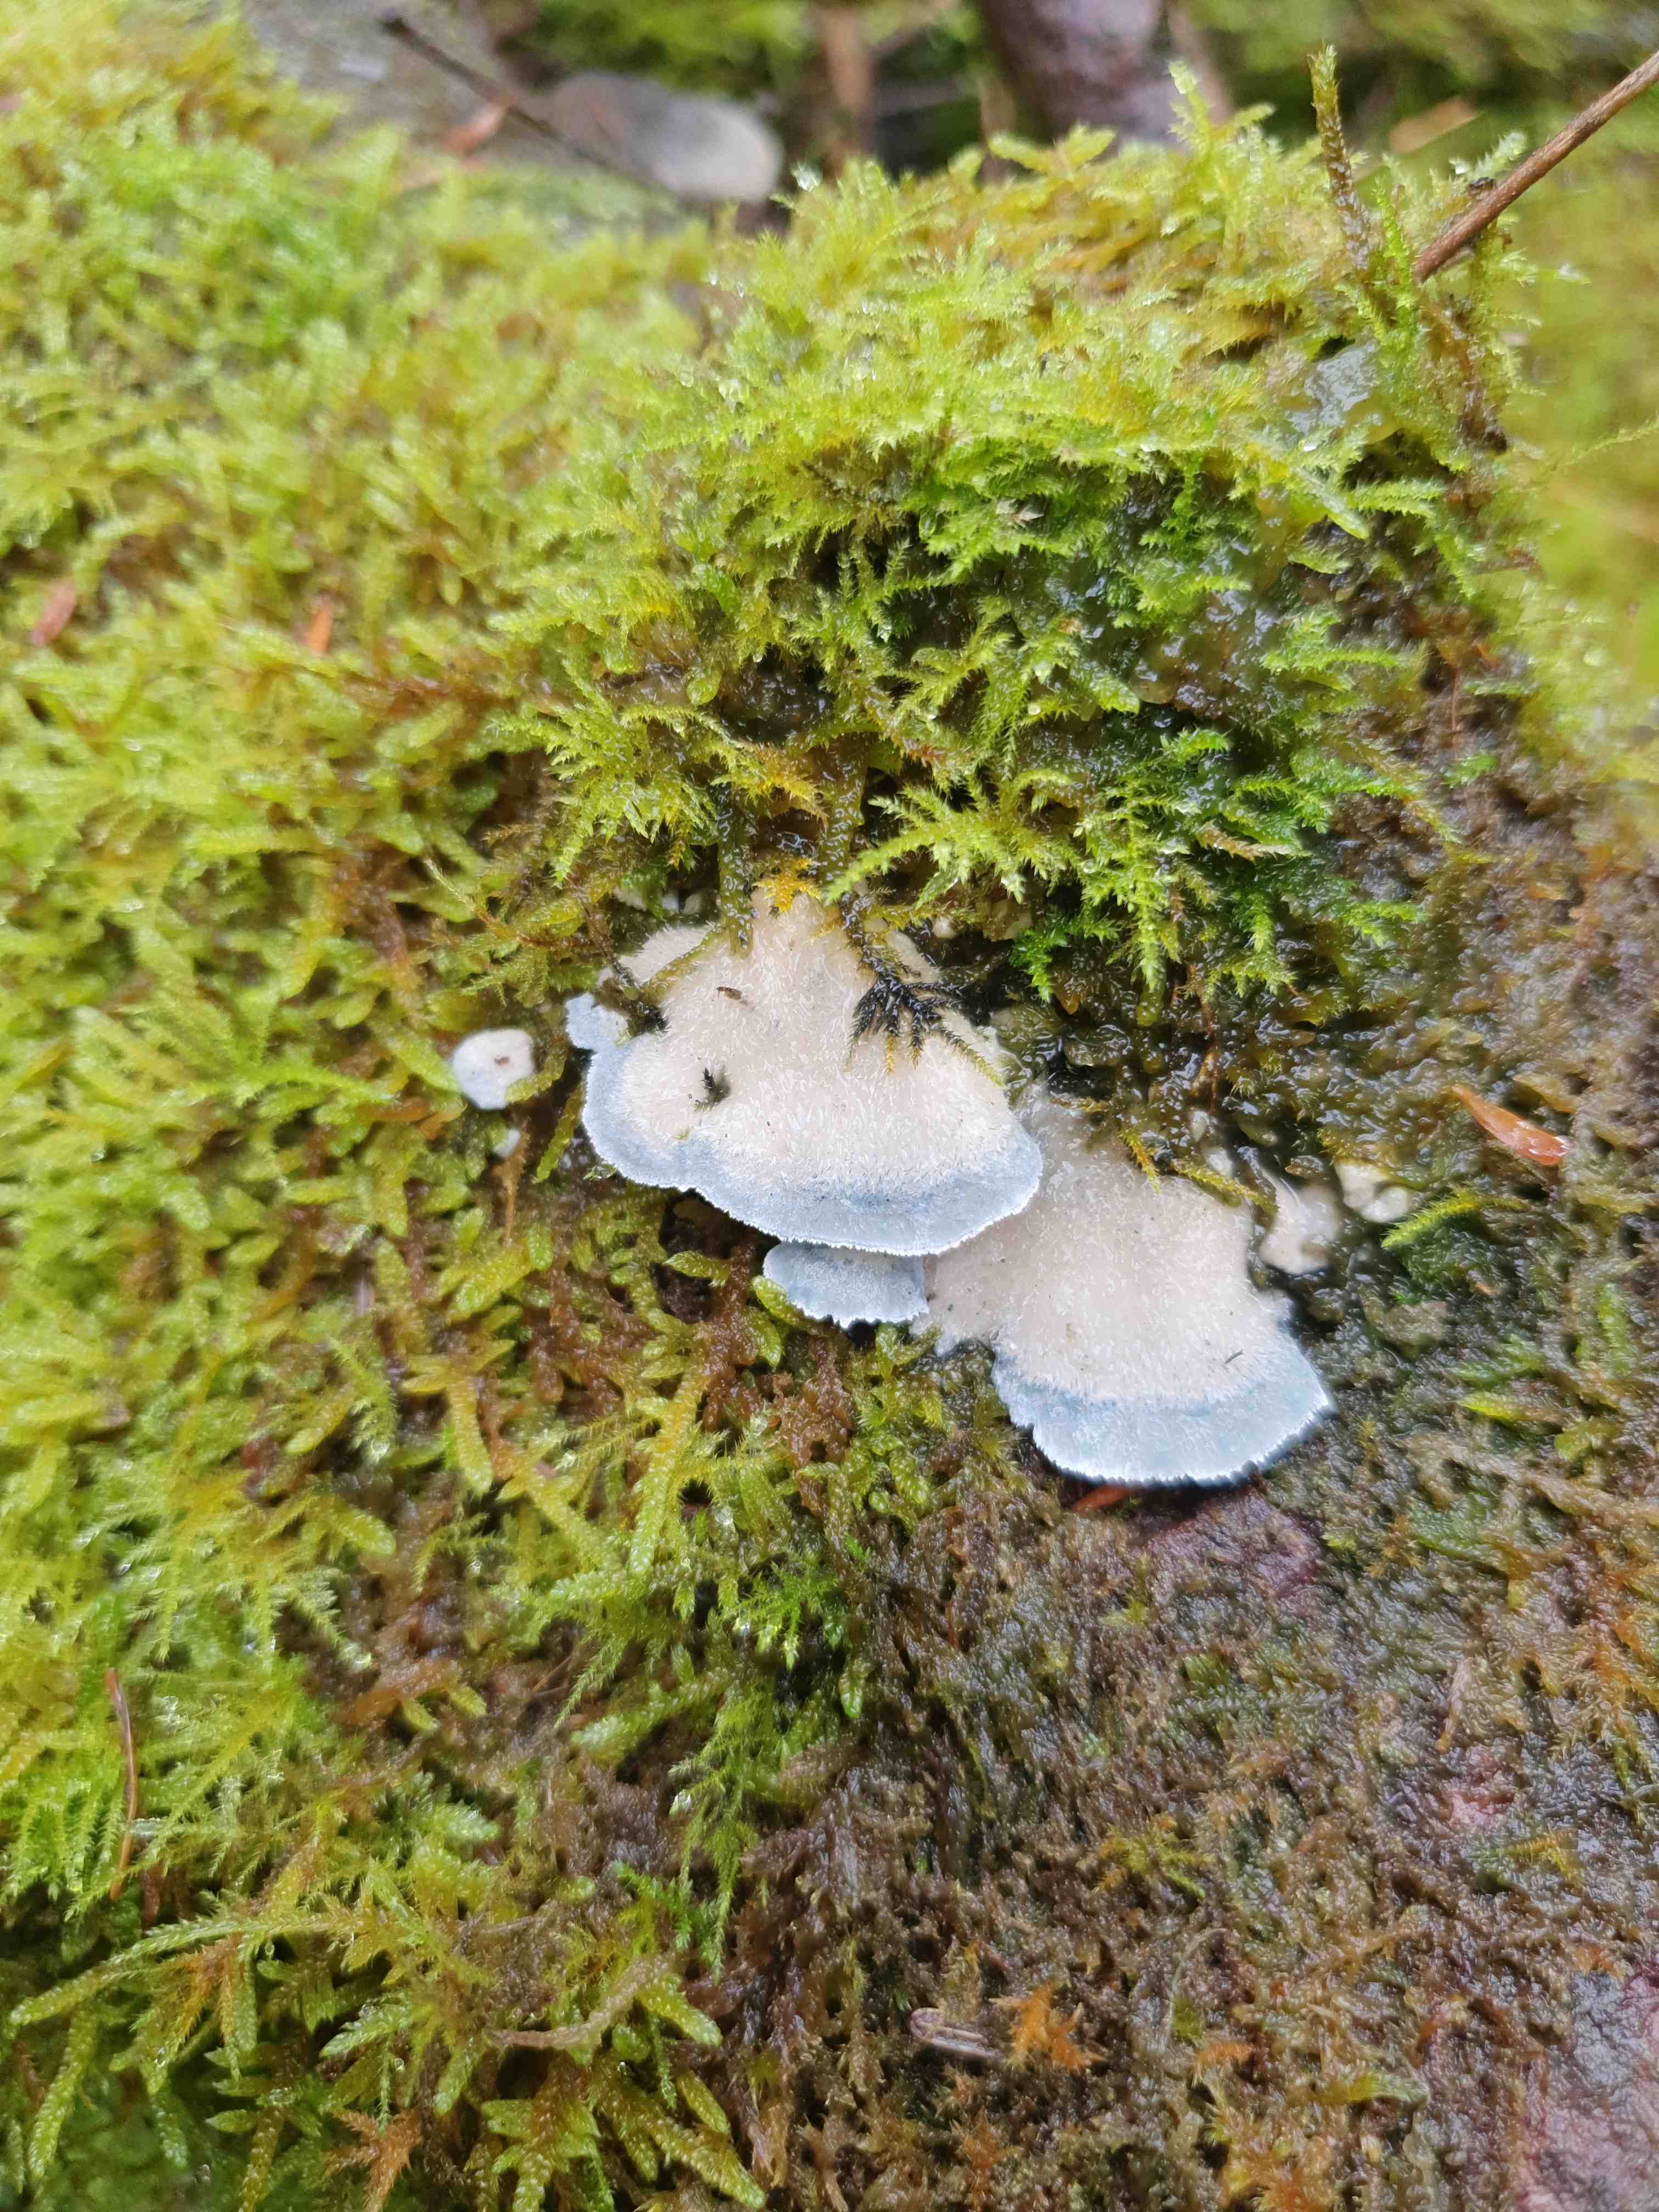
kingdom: Fungi
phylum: Basidiomycota
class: Agaricomycetes
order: Polyporales
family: Polyporaceae
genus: Cyanosporus
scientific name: Cyanosporus caesius
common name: blålig kødporesvamp
